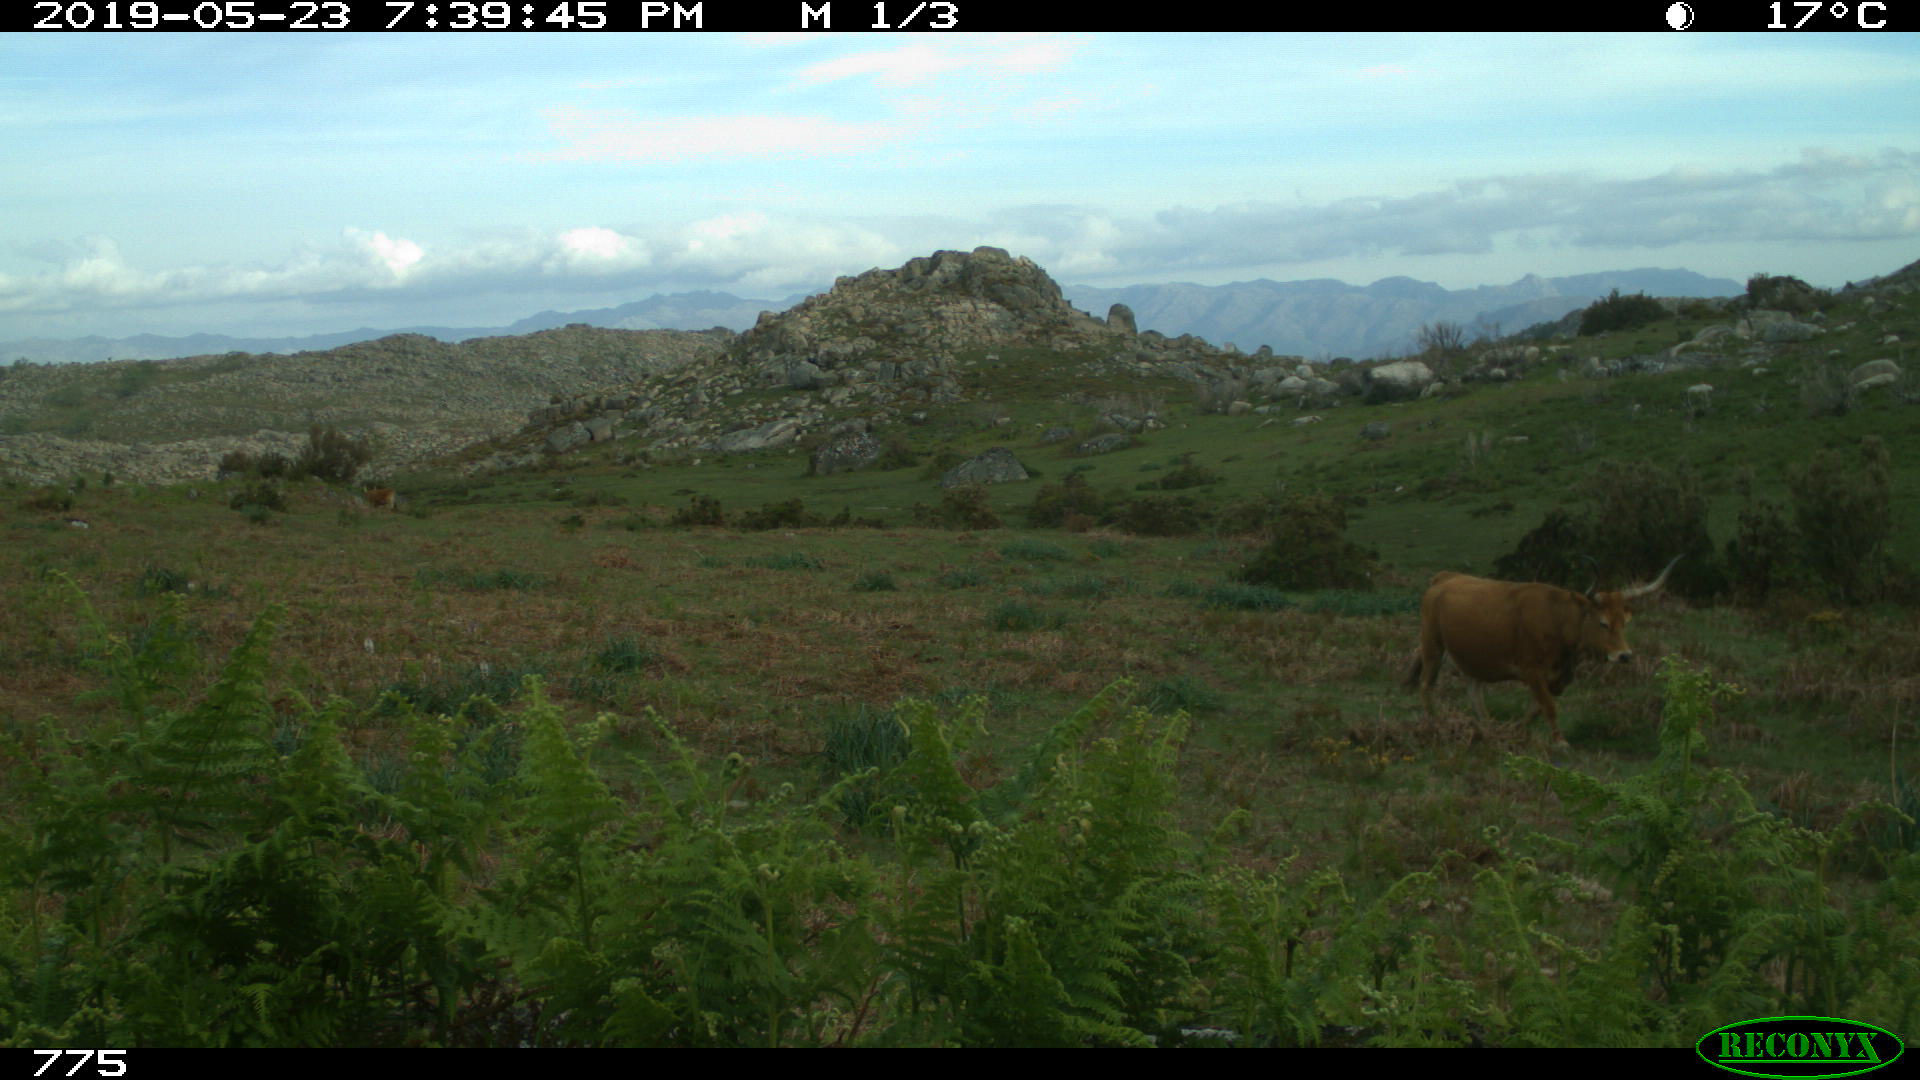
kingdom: Animalia
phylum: Chordata
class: Mammalia
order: Artiodactyla
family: Bovidae
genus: Bos
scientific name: Bos taurus
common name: Domesticated cattle
